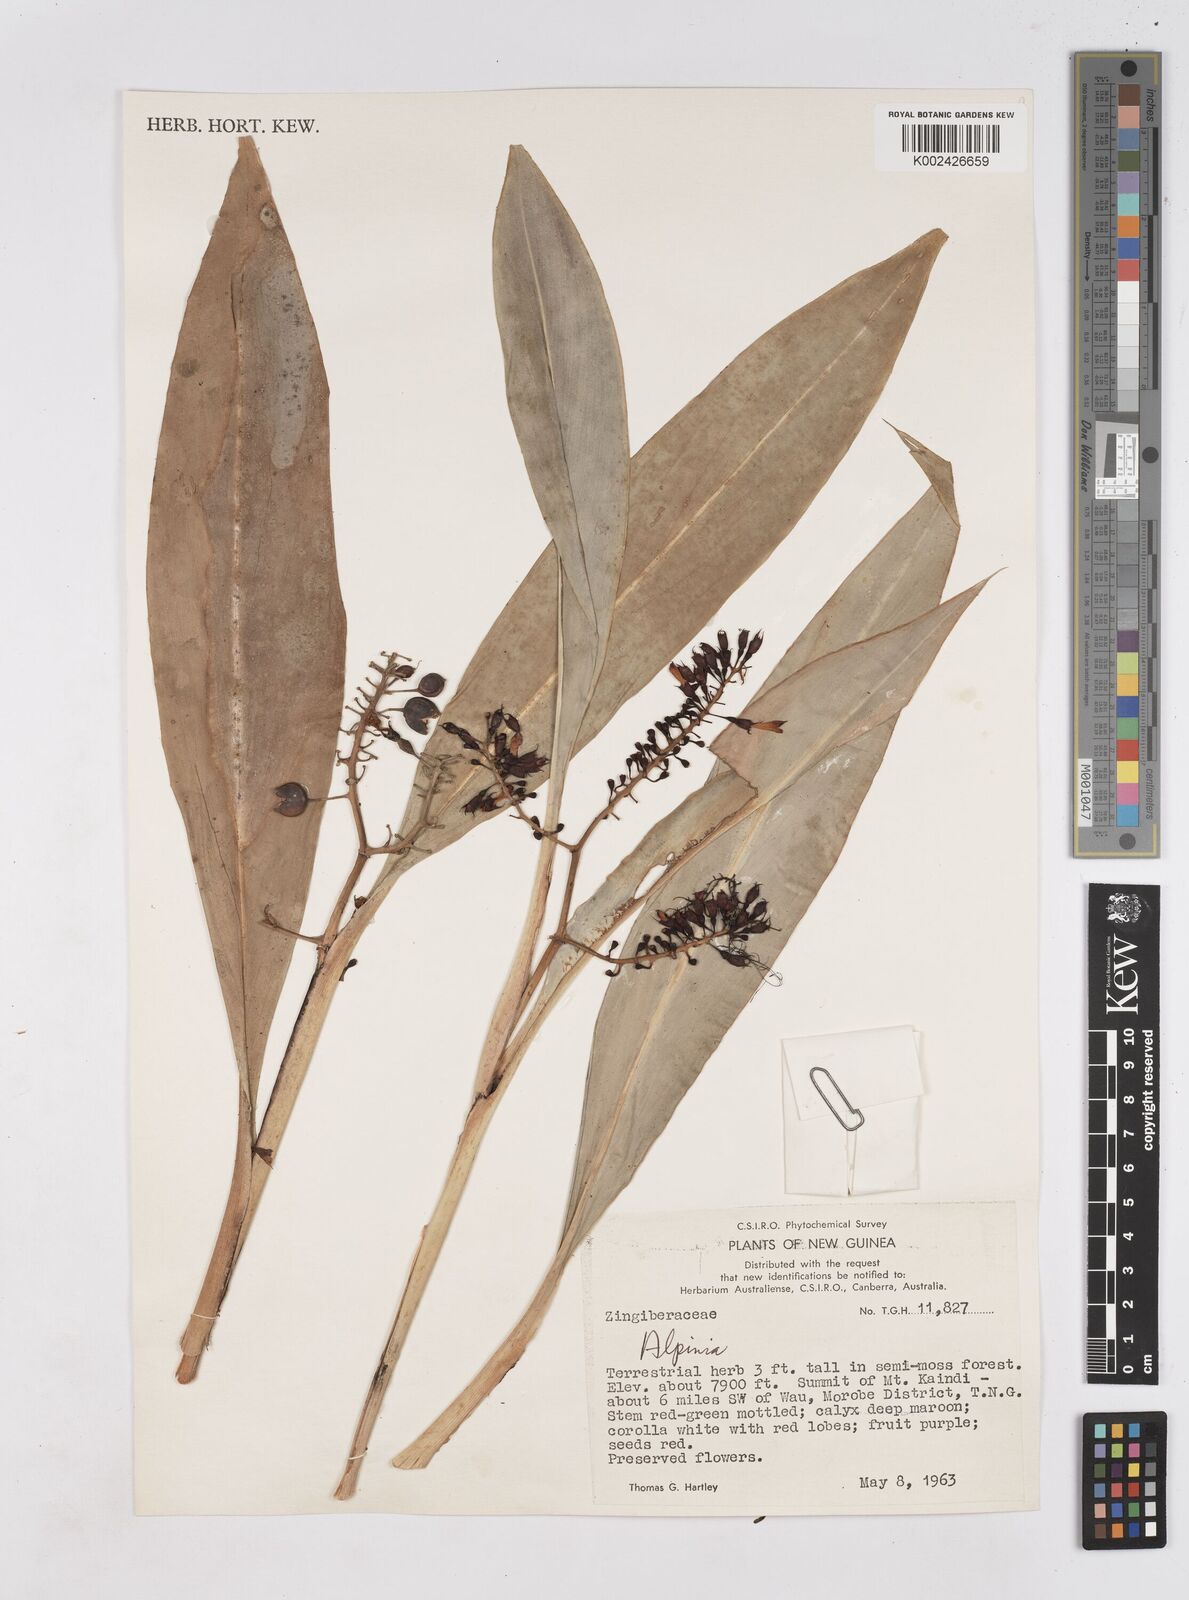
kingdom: Plantae
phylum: Tracheophyta
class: Liliopsida
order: Zingiberales
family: Zingiberaceae
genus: Riedelia
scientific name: Riedelia
